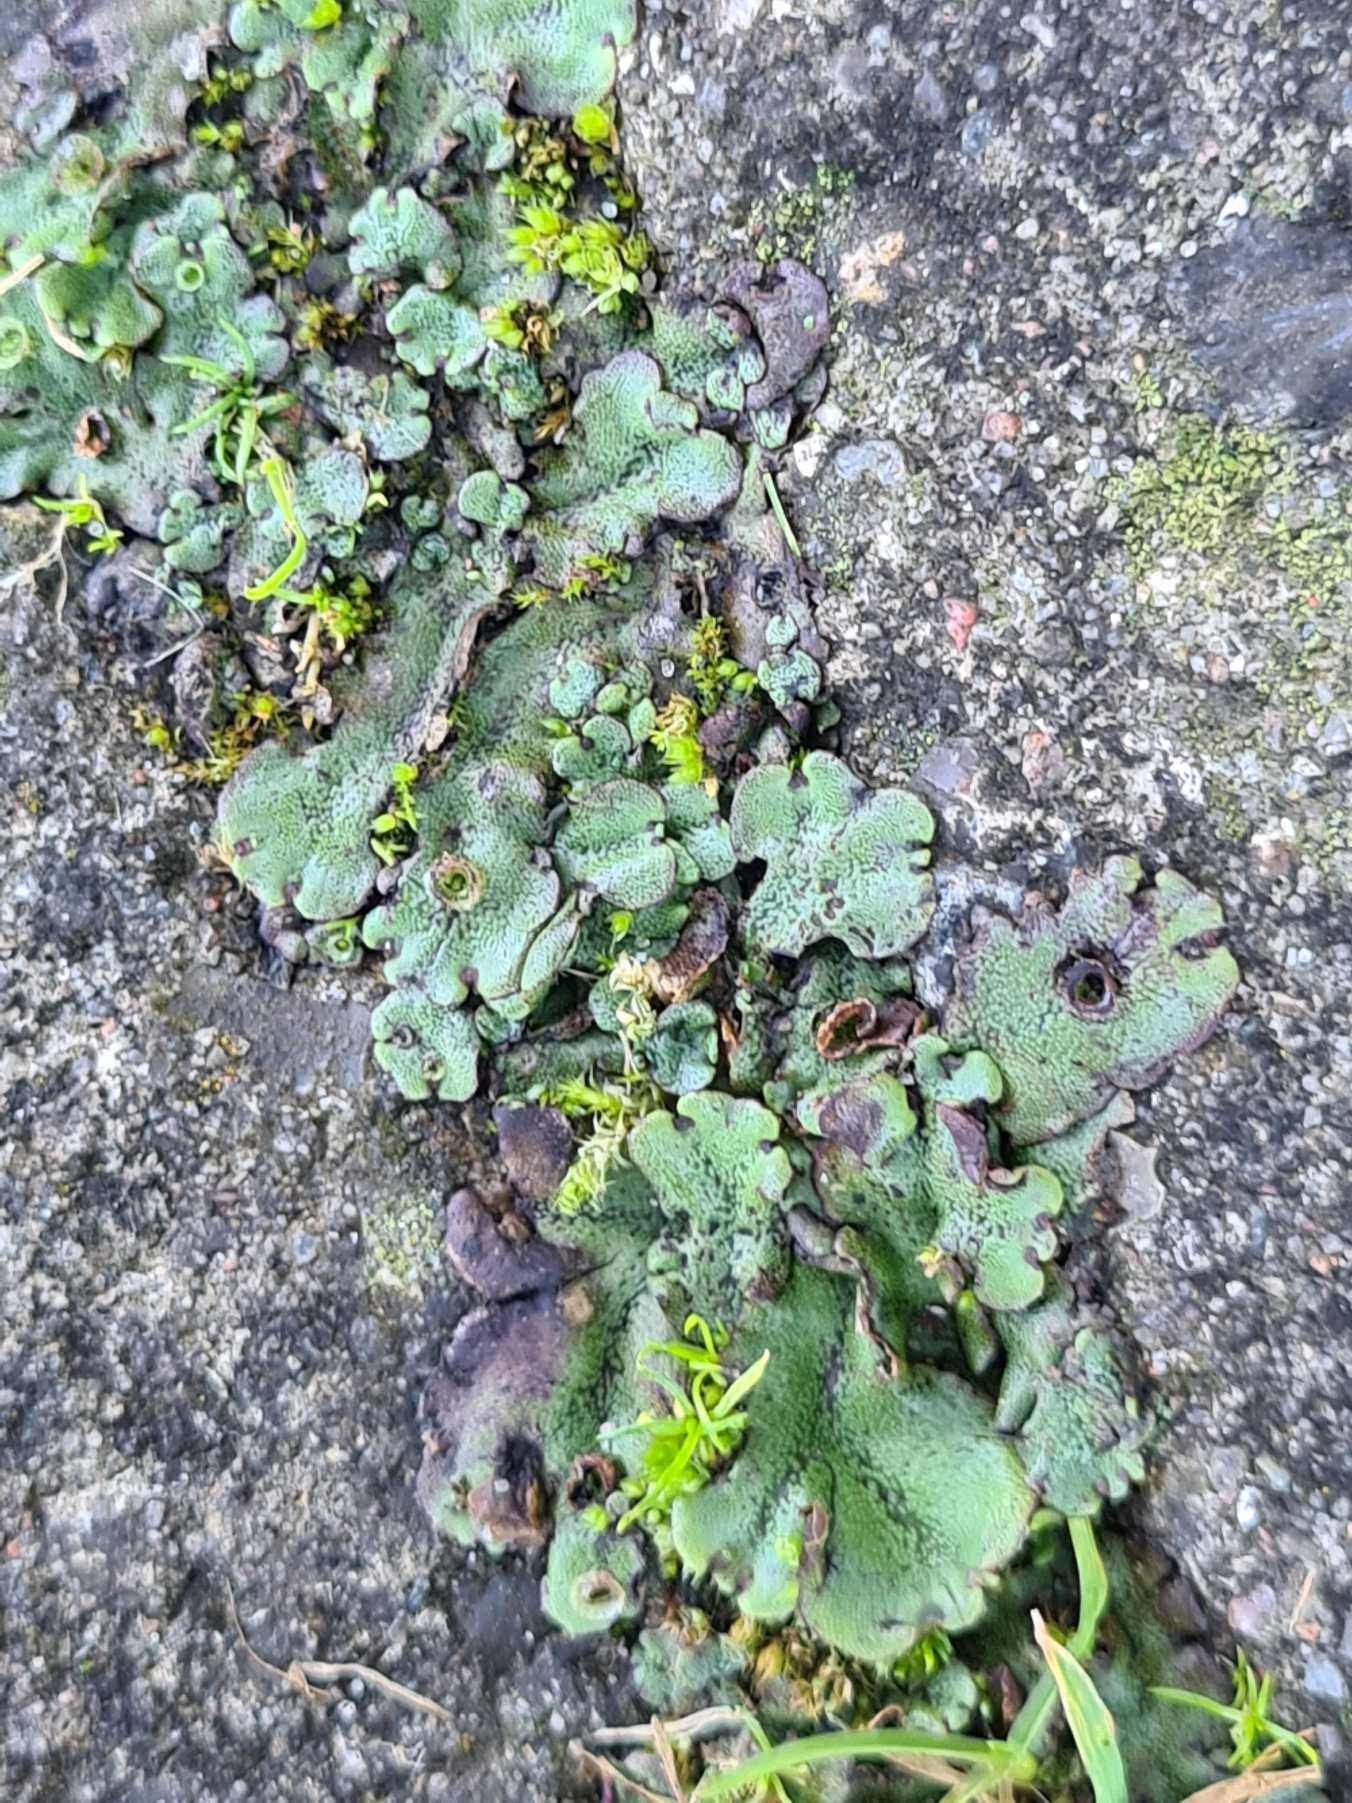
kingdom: Plantae
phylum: Marchantiophyta
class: Marchantiopsida
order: Marchantiales
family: Marchantiaceae
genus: Marchantia
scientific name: Marchantia polymorpha
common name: Almindelig lungemos (underart)
